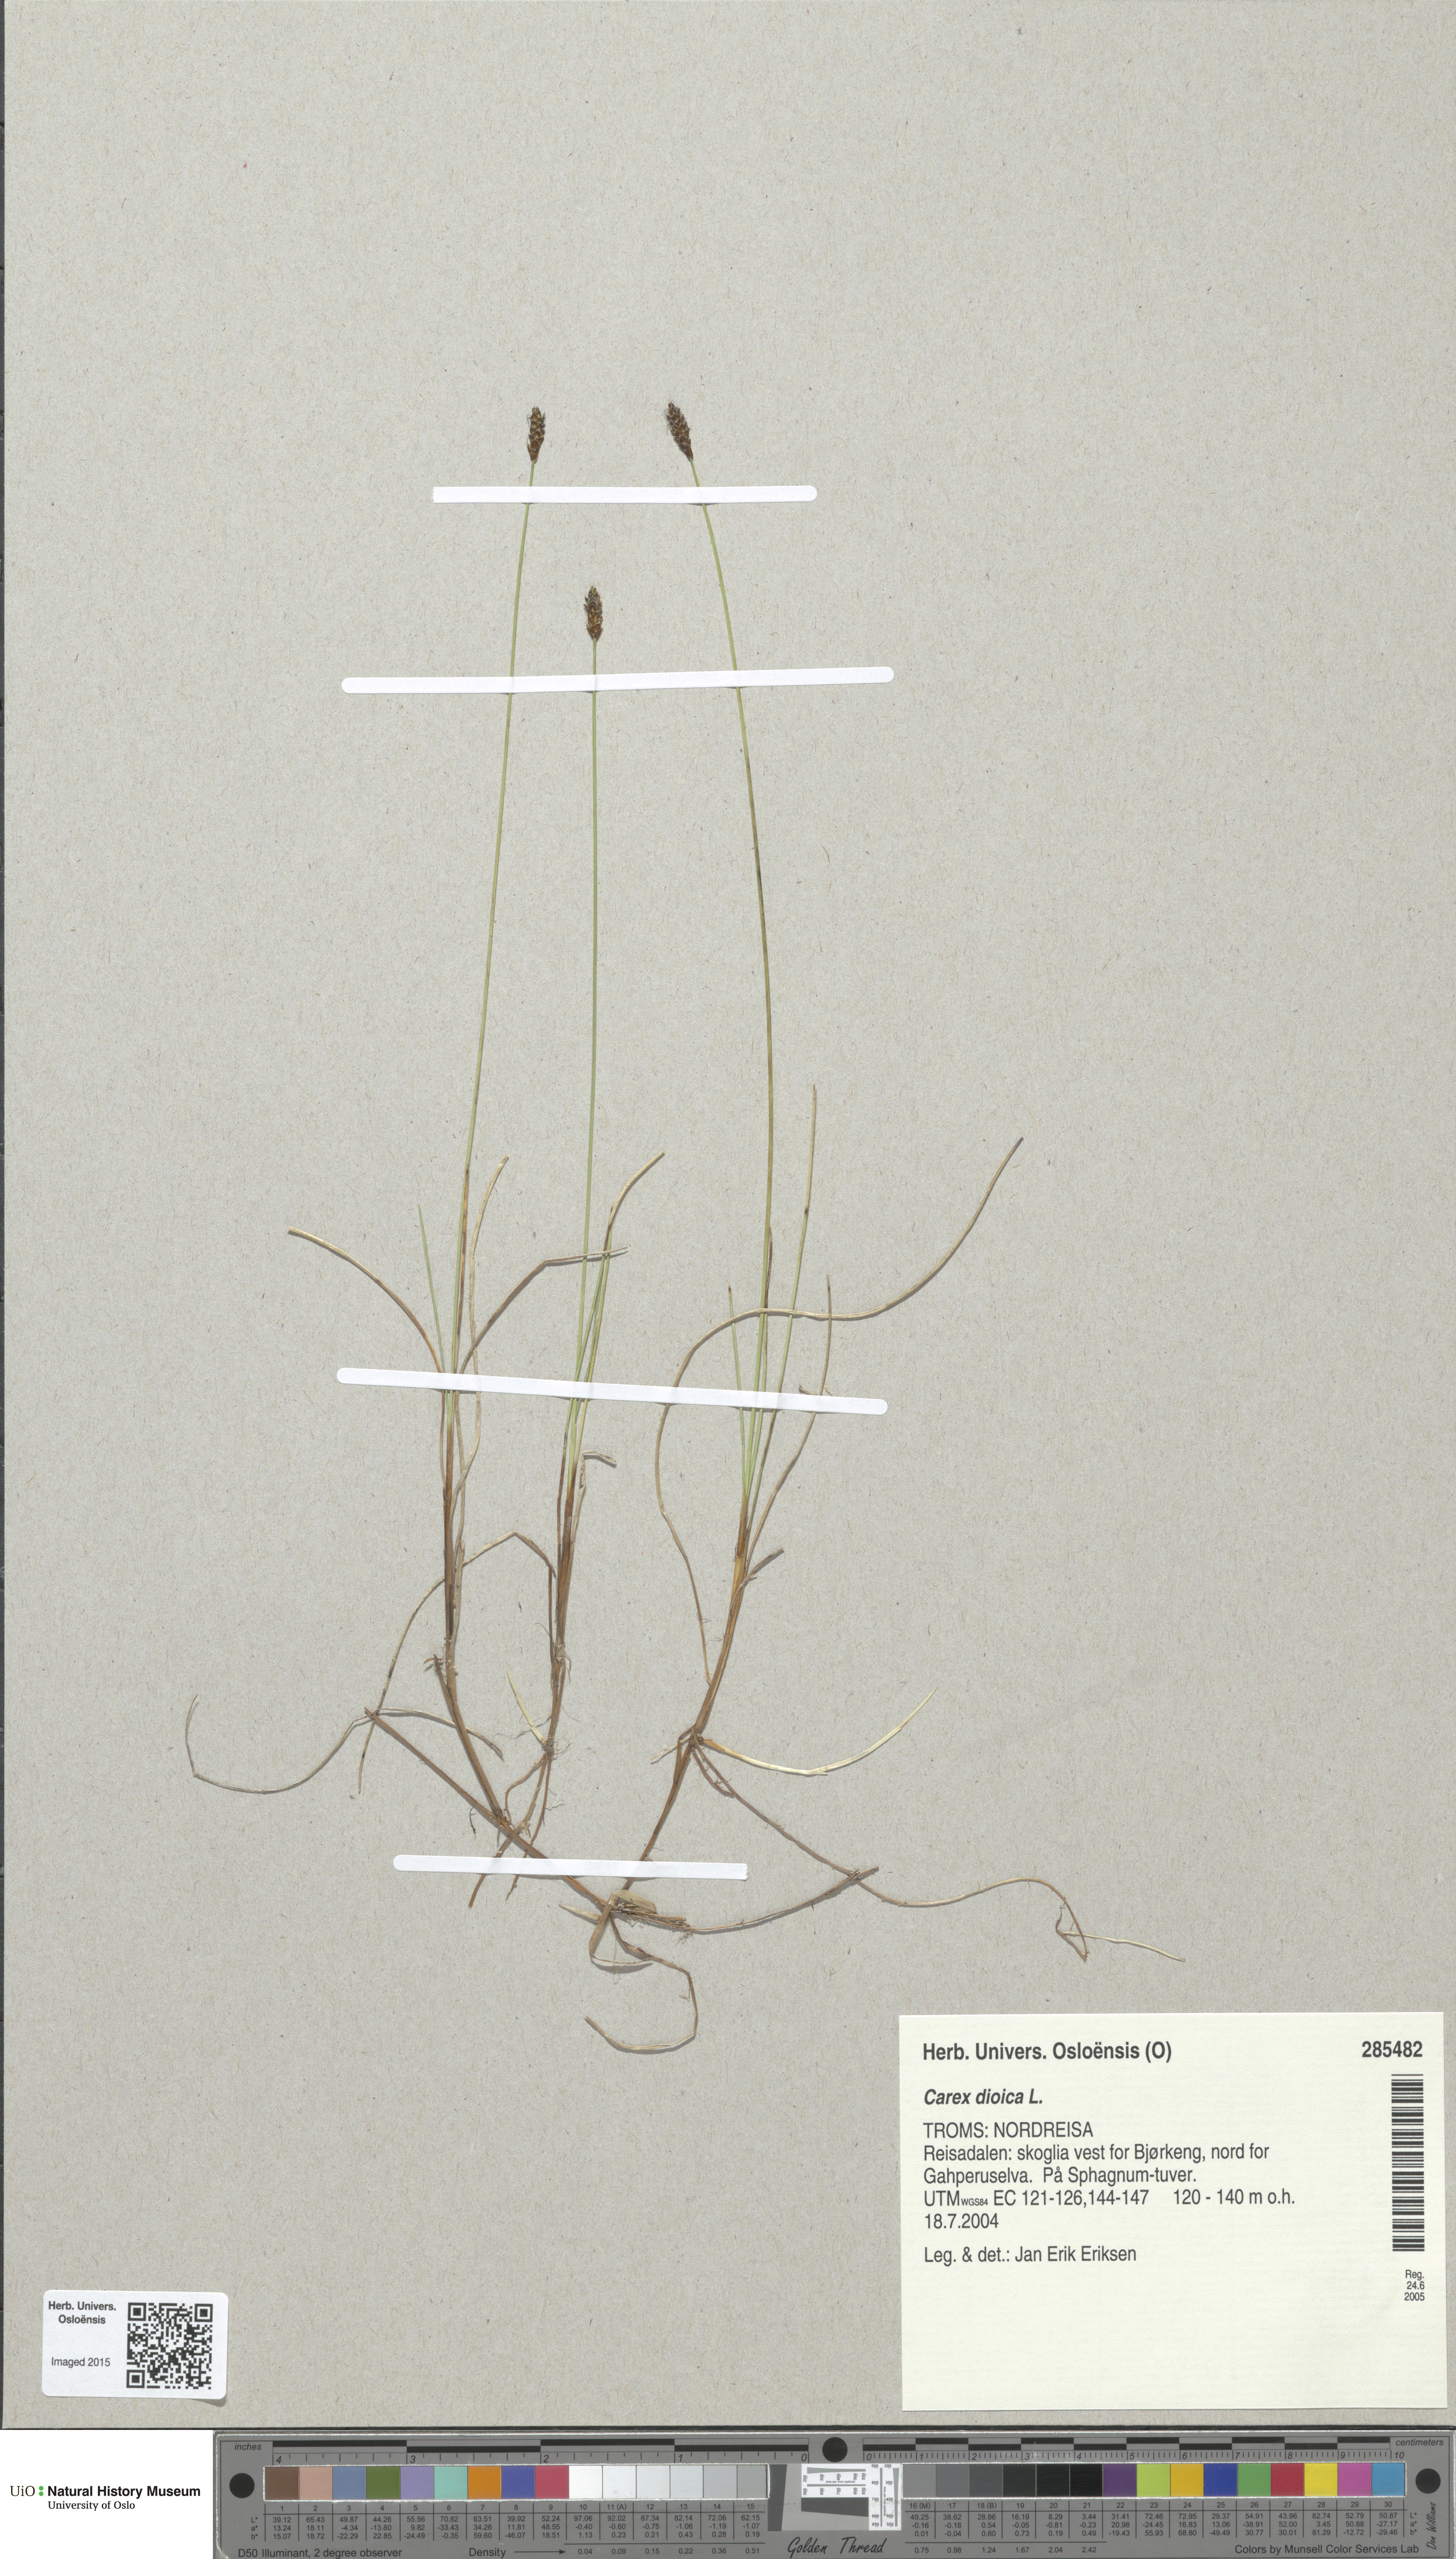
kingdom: Plantae
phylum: Tracheophyta
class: Liliopsida
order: Poales
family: Cyperaceae
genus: Carex
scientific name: Carex dioica
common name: Dioecious sedge
